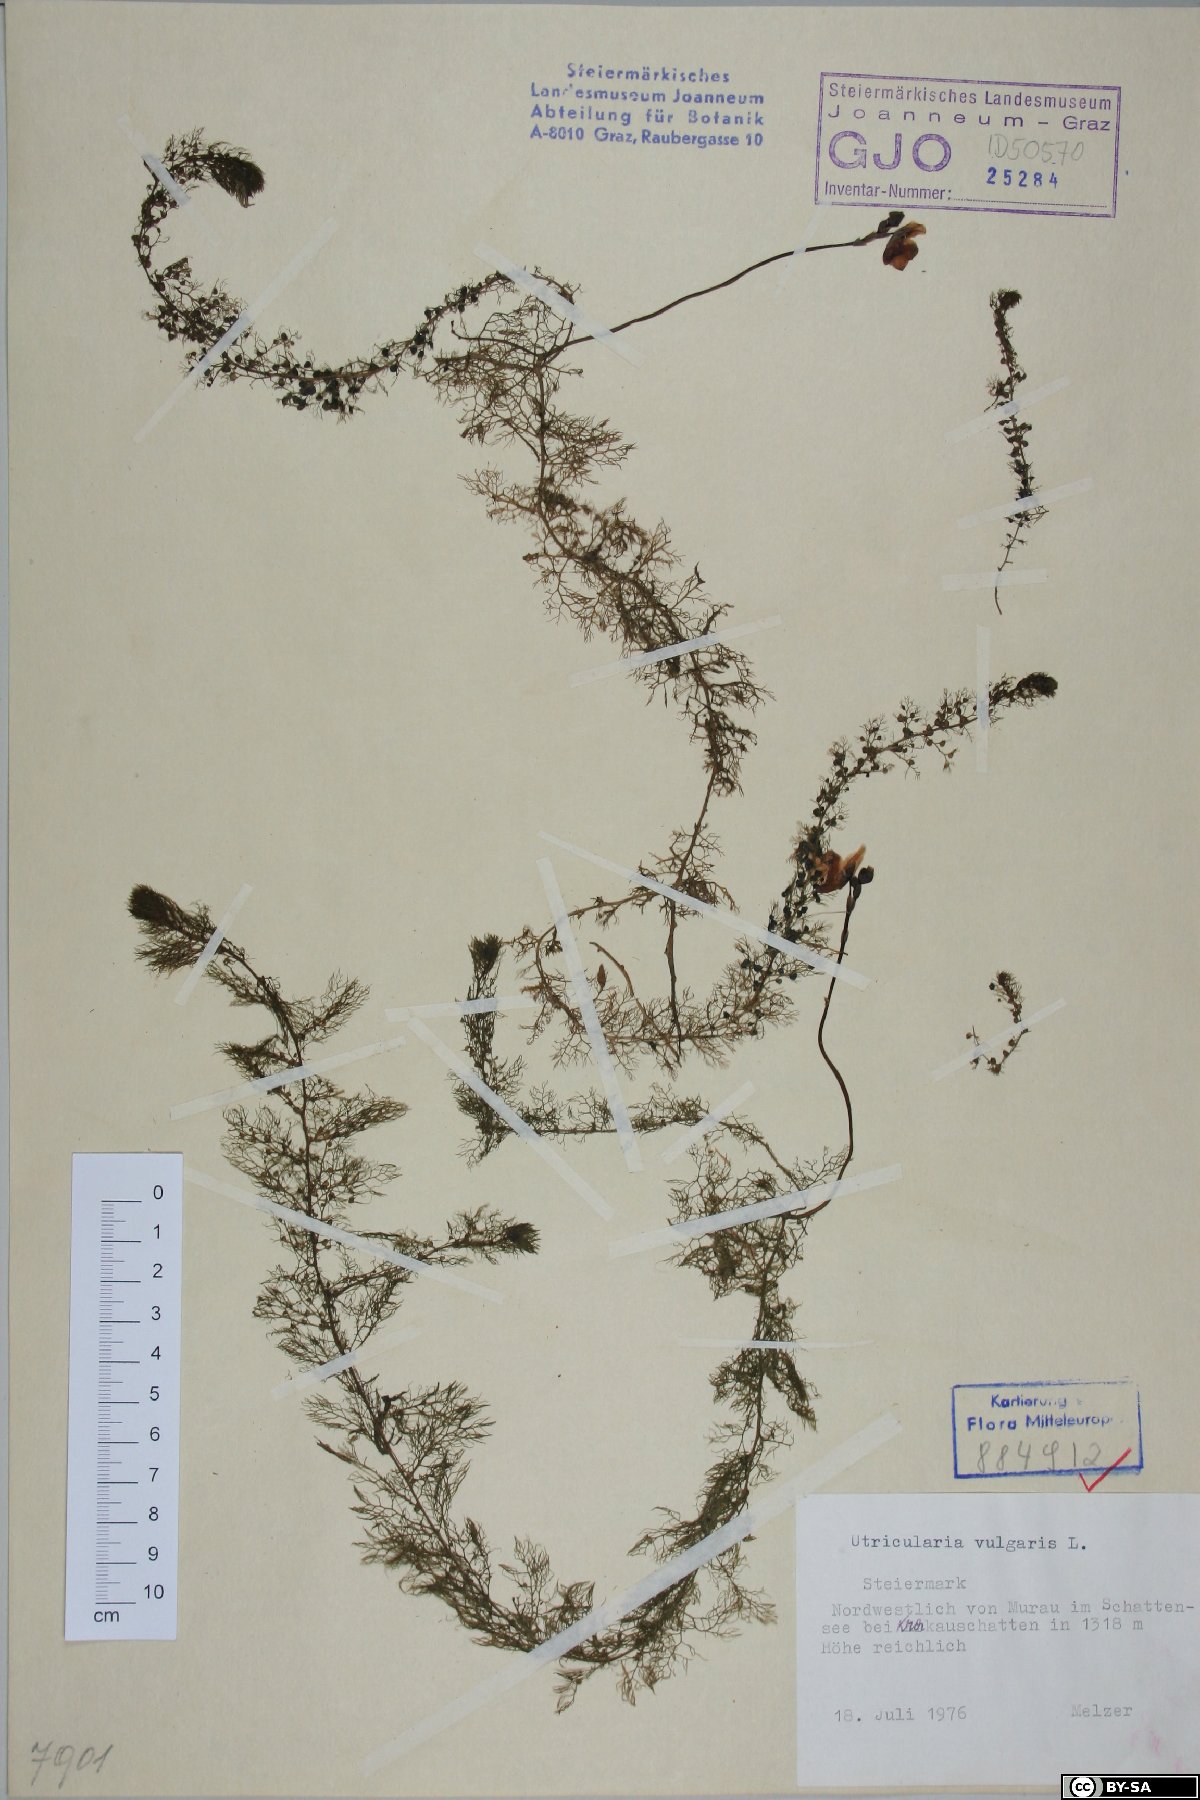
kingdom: Plantae
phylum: Tracheophyta
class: Magnoliopsida
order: Lamiales
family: Lentibulariaceae
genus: Utricularia
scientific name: Utricularia vulgaris
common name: Greater bladderwort
